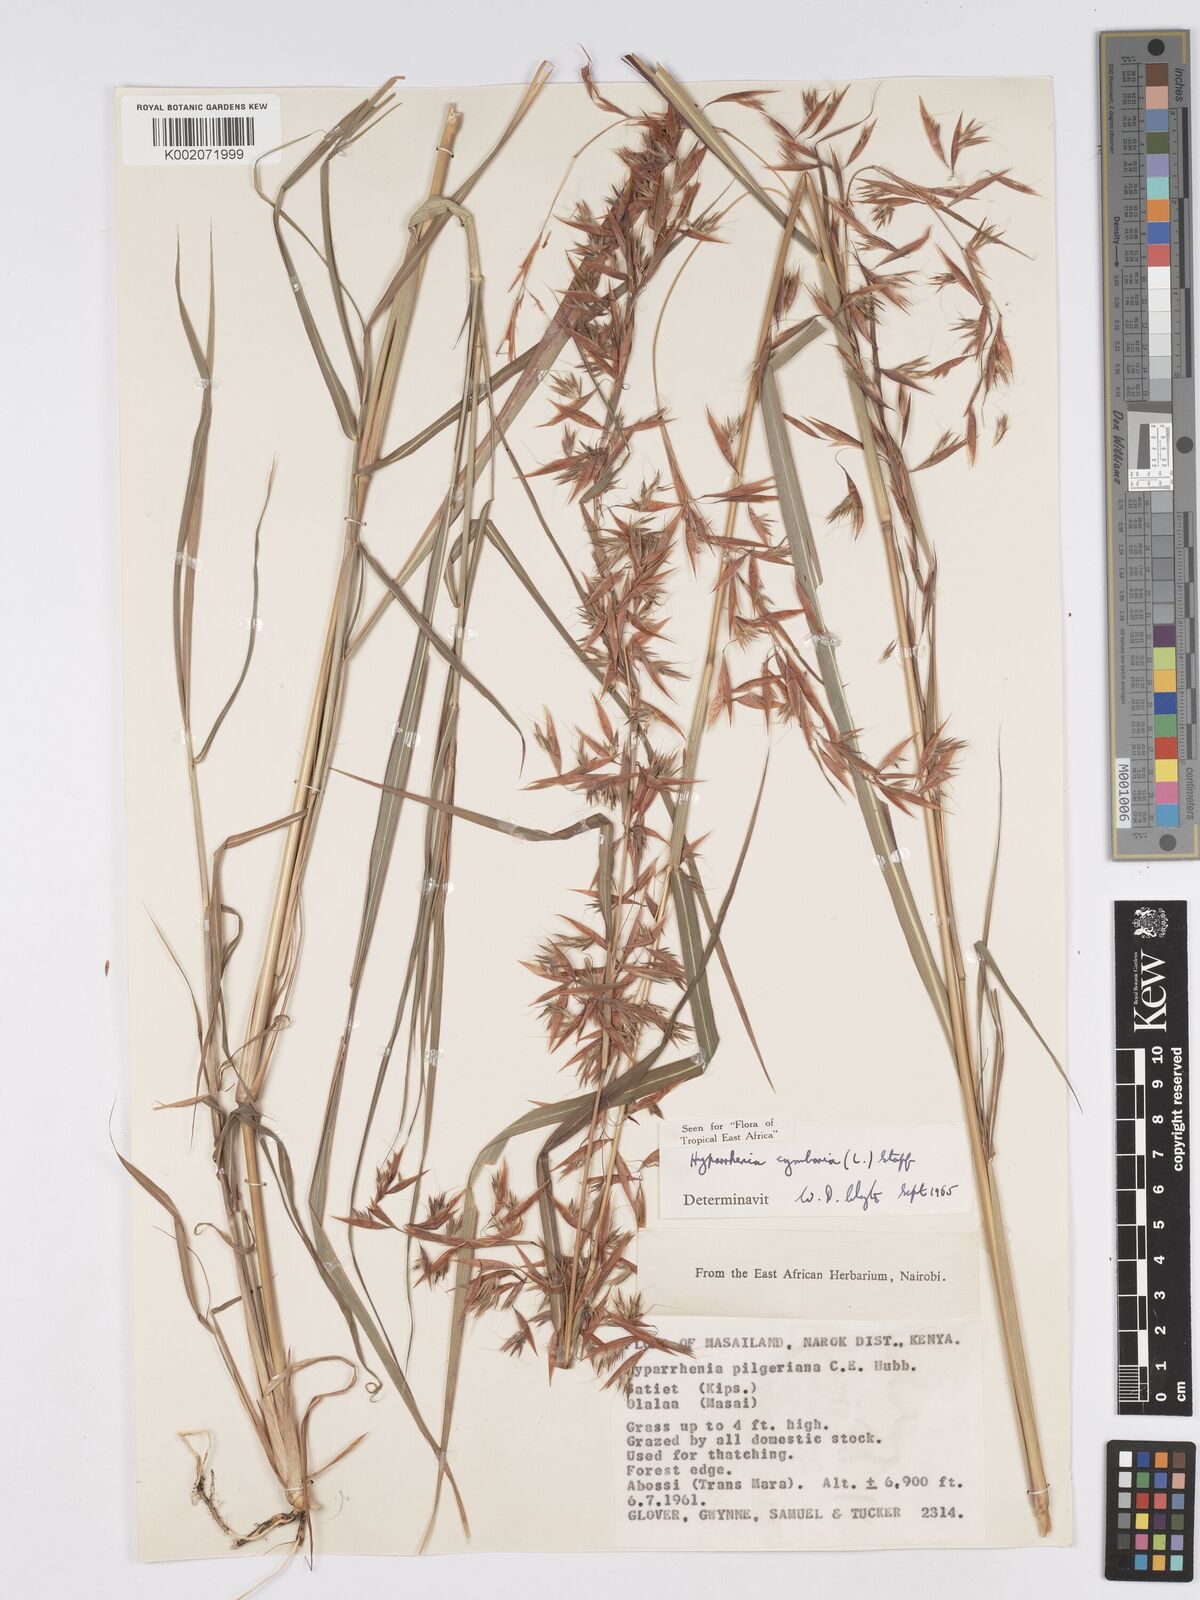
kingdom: Plantae
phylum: Tracheophyta
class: Liliopsida
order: Poales
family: Poaceae
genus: Hyparrhenia
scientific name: Hyparrhenia cymbaria
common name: Boat thatching grass
